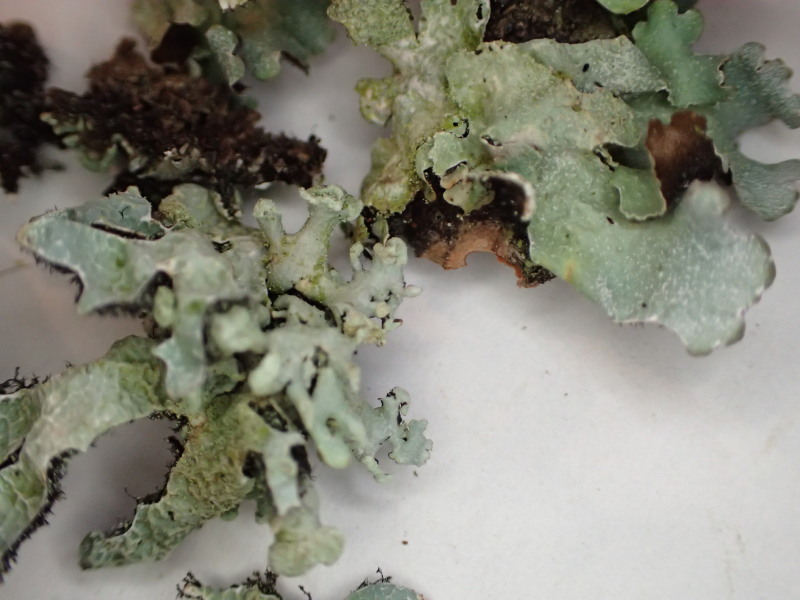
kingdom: Fungi
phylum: Ascomycota
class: Lecanoromycetes
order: Lecanorales
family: Parmeliaceae
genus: Parmelia
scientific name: Parmelia sulcata
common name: rynket skållav
